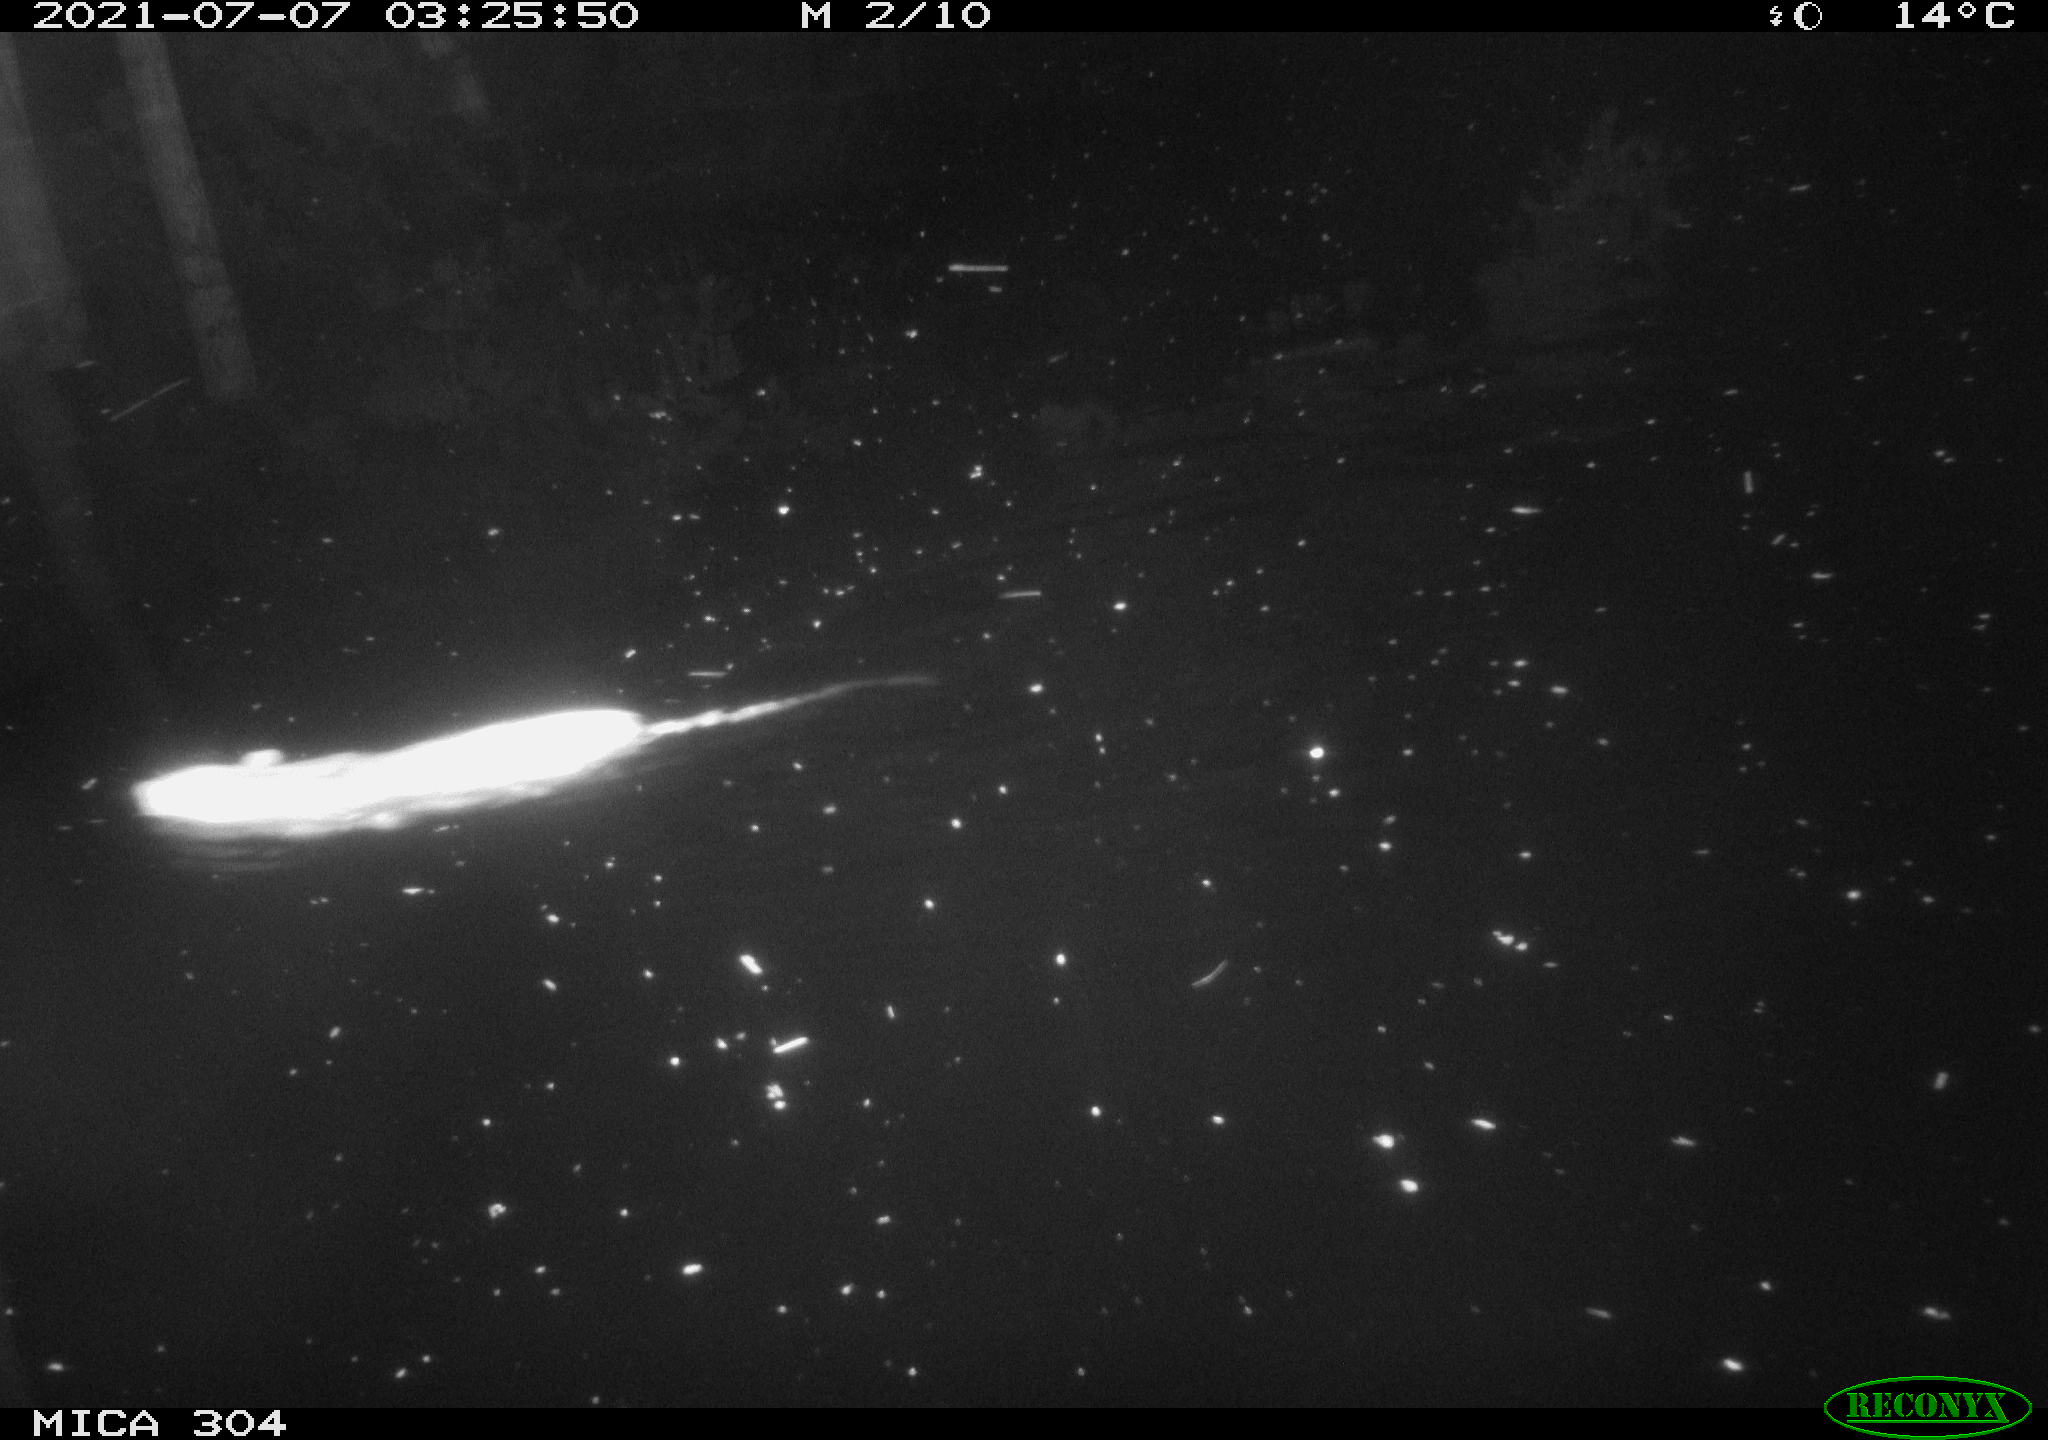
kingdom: Animalia
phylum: Chordata
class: Mammalia
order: Rodentia
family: Muridae
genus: Rattus
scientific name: Rattus norvegicus
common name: Brown rat
